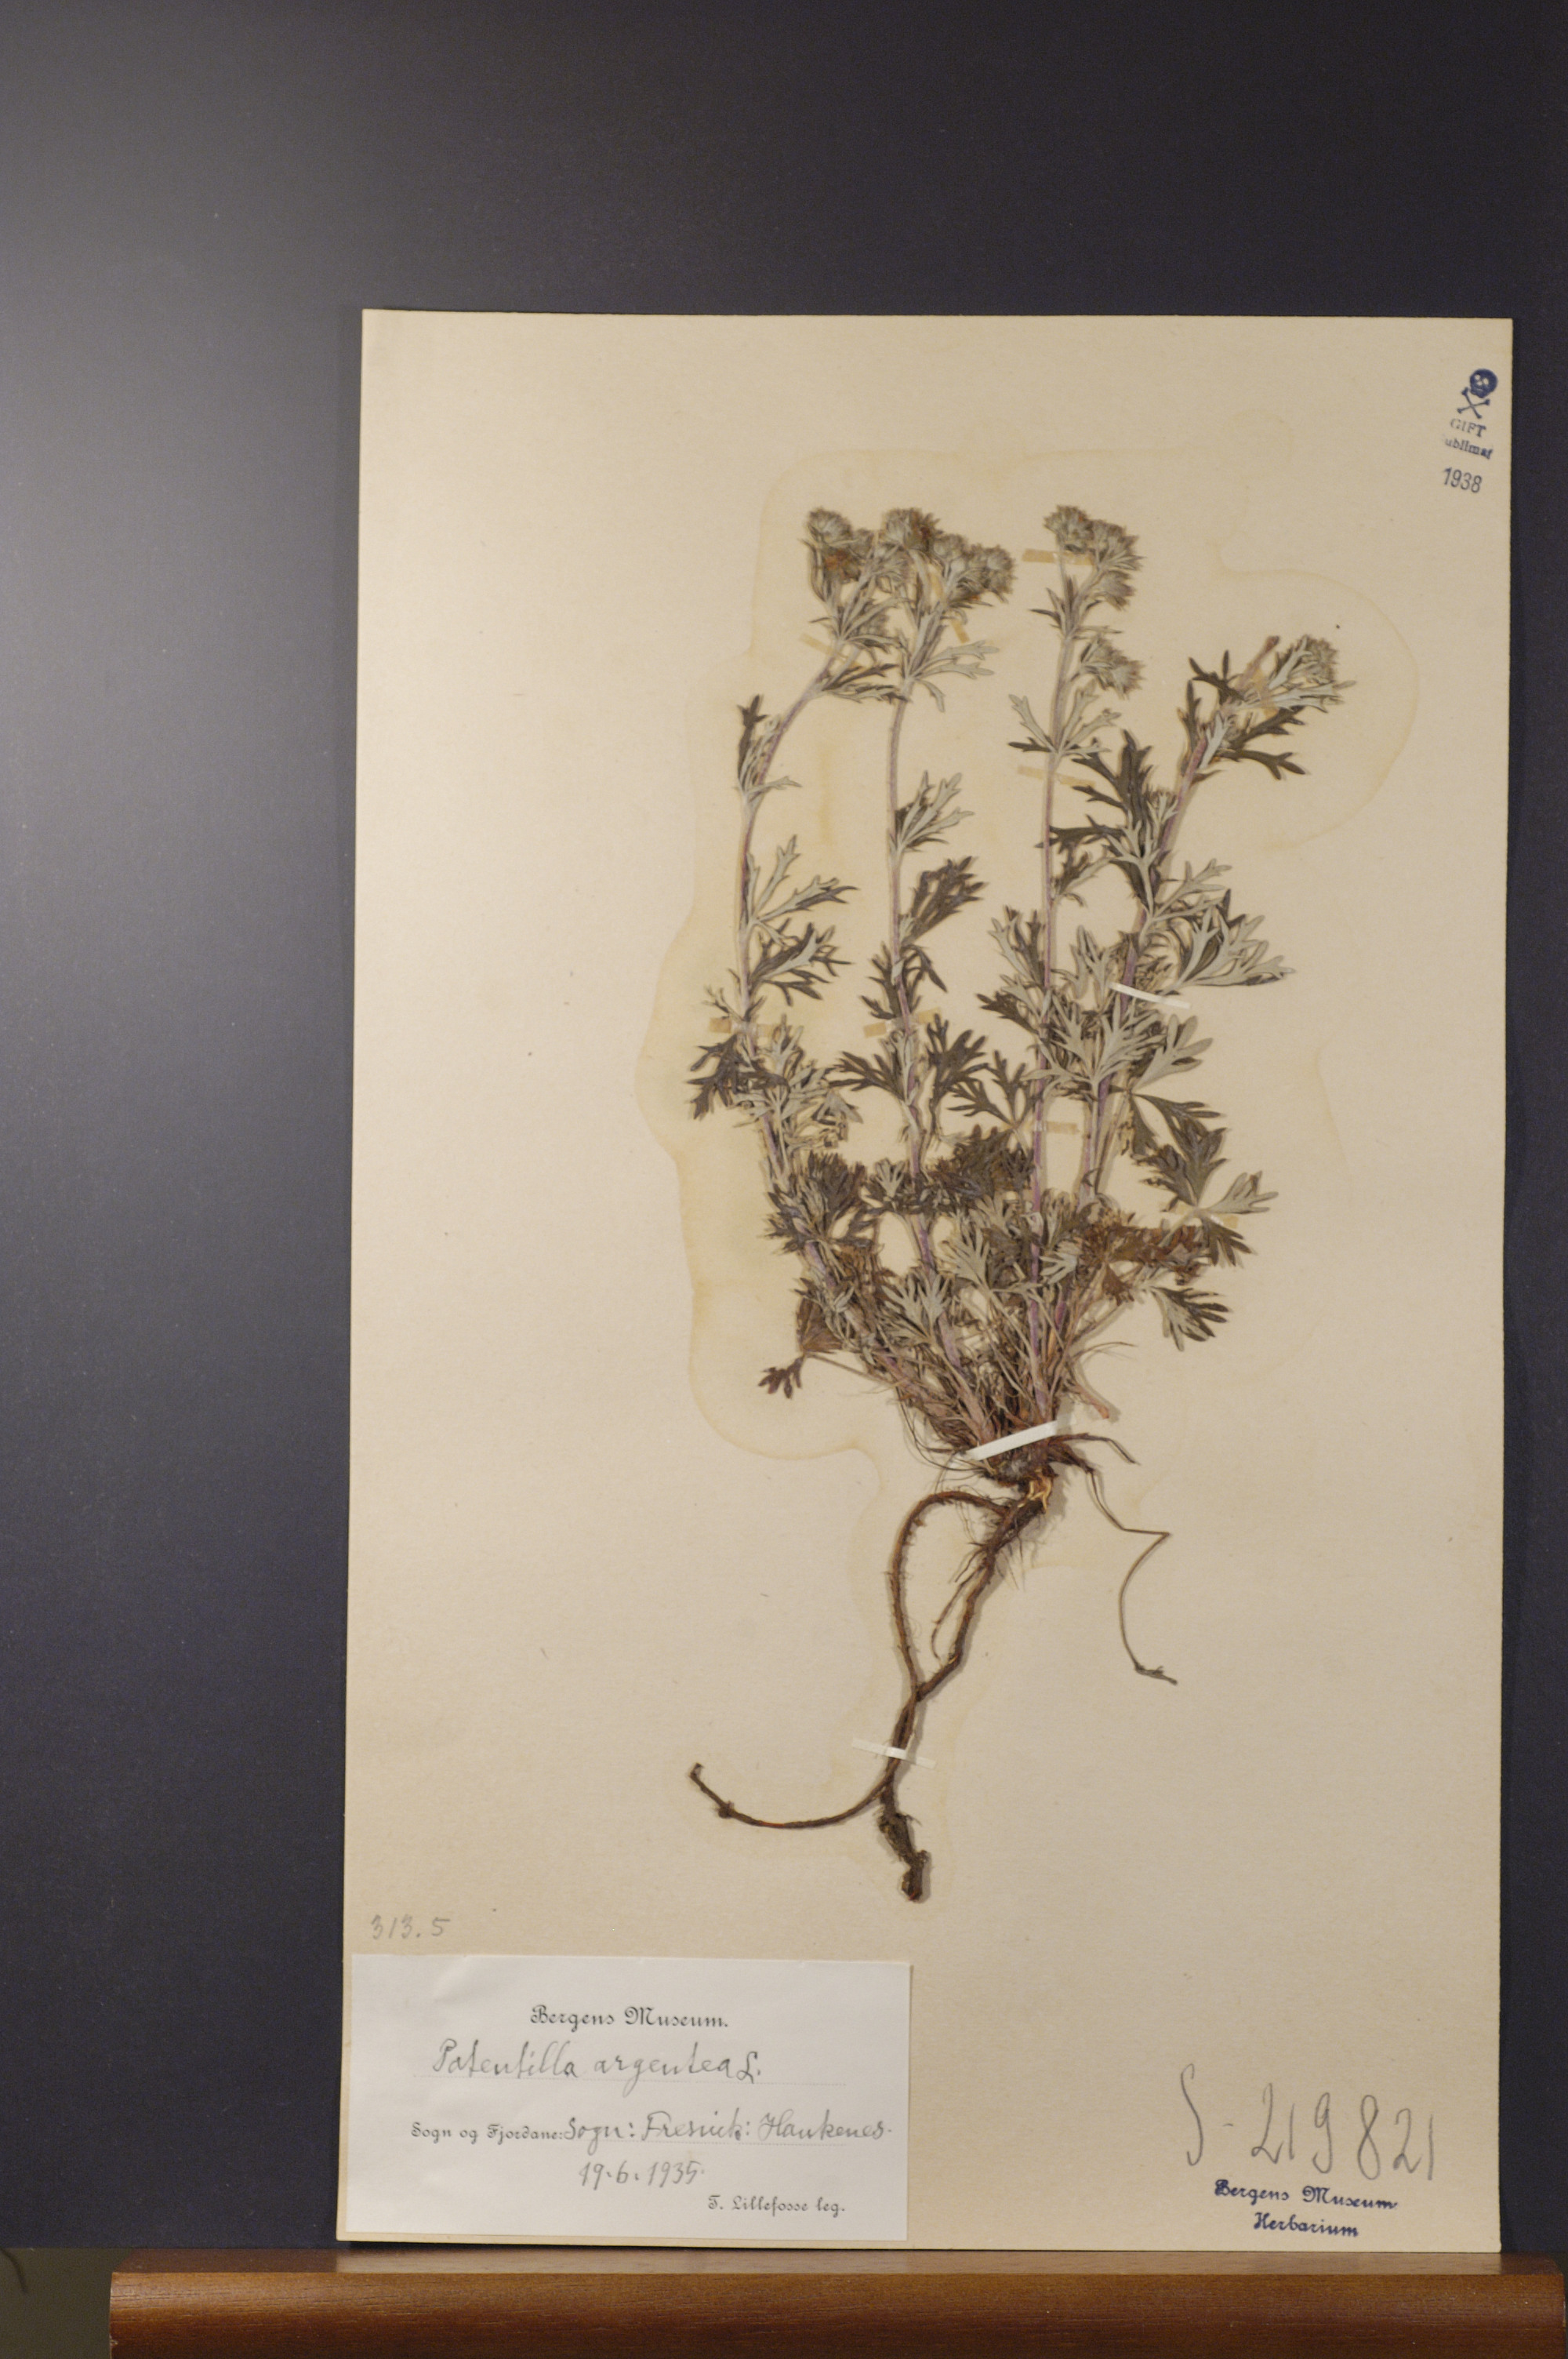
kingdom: Plantae
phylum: Tracheophyta
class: Magnoliopsida
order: Rosales
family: Rosaceae
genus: Potentilla
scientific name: Potentilla argentea
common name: Hoary cinquefoil
